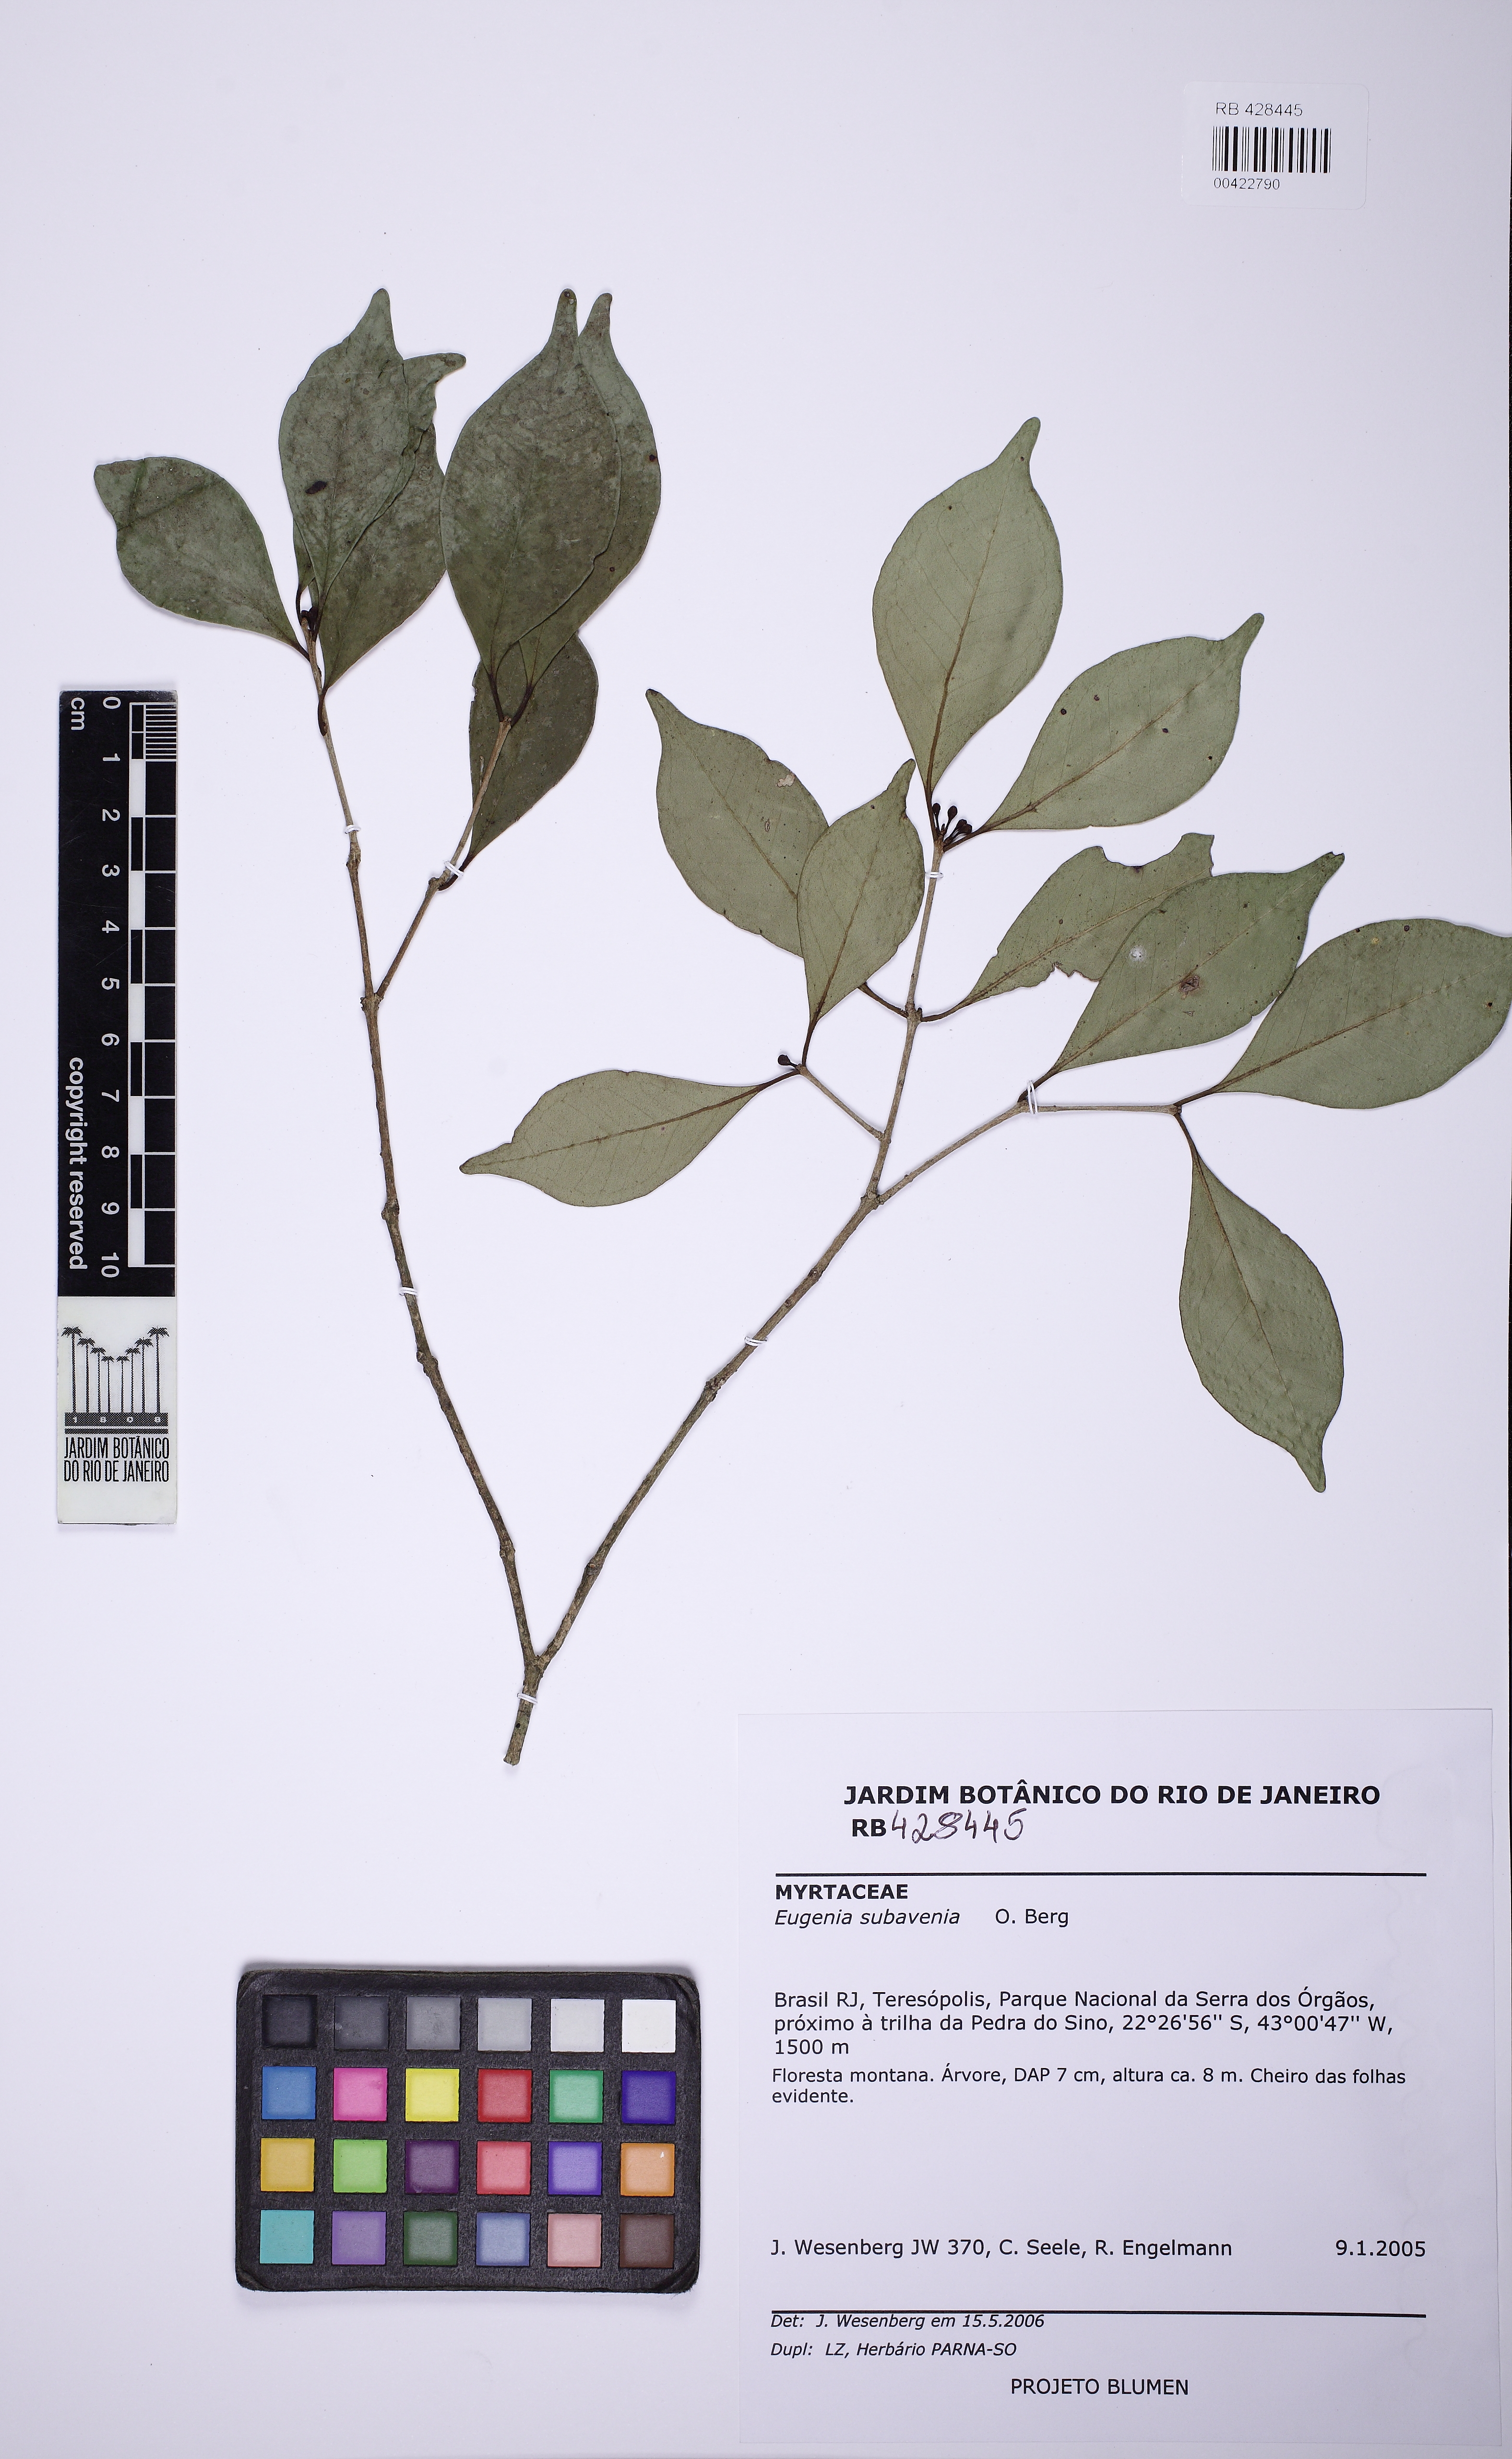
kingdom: Plantae
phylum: Tracheophyta
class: Magnoliopsida
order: Myrtales
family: Myrtaceae
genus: Eugenia
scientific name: Eugenia subavenia
